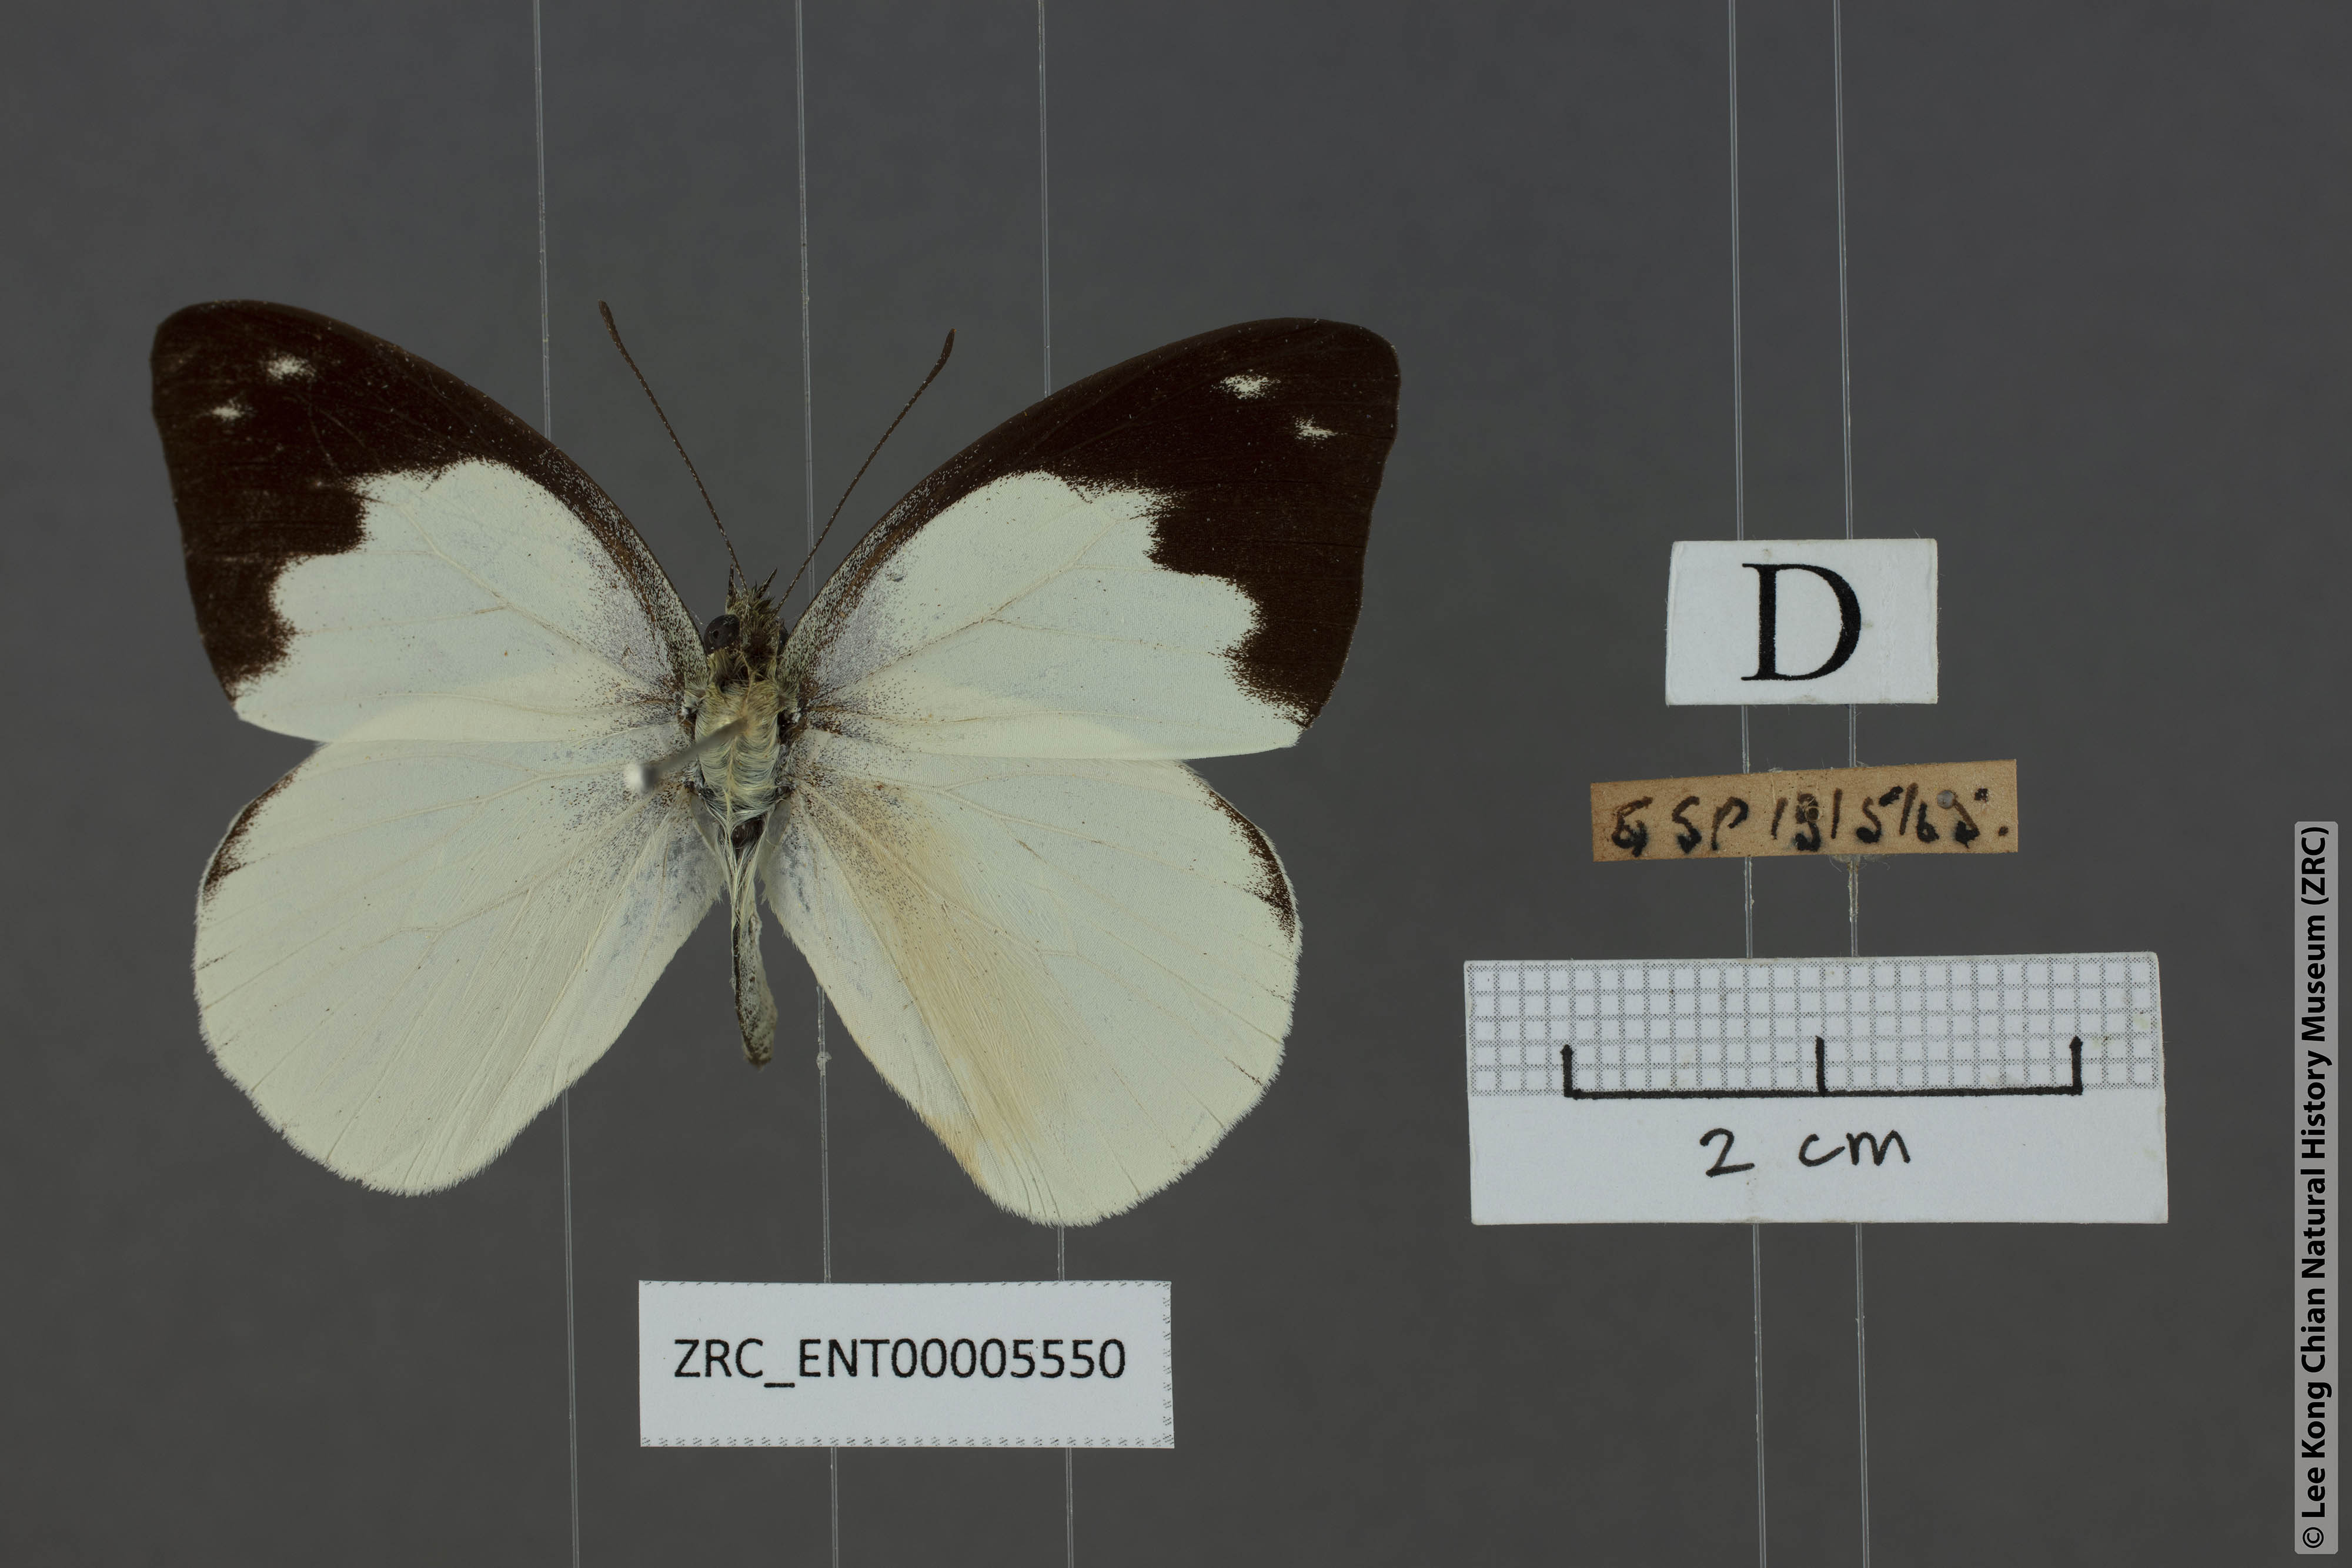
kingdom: Animalia
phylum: Arthropoda
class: Insecta
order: Lepidoptera
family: Pieridae
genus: Appias
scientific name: Appias indra
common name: Plain puffin
